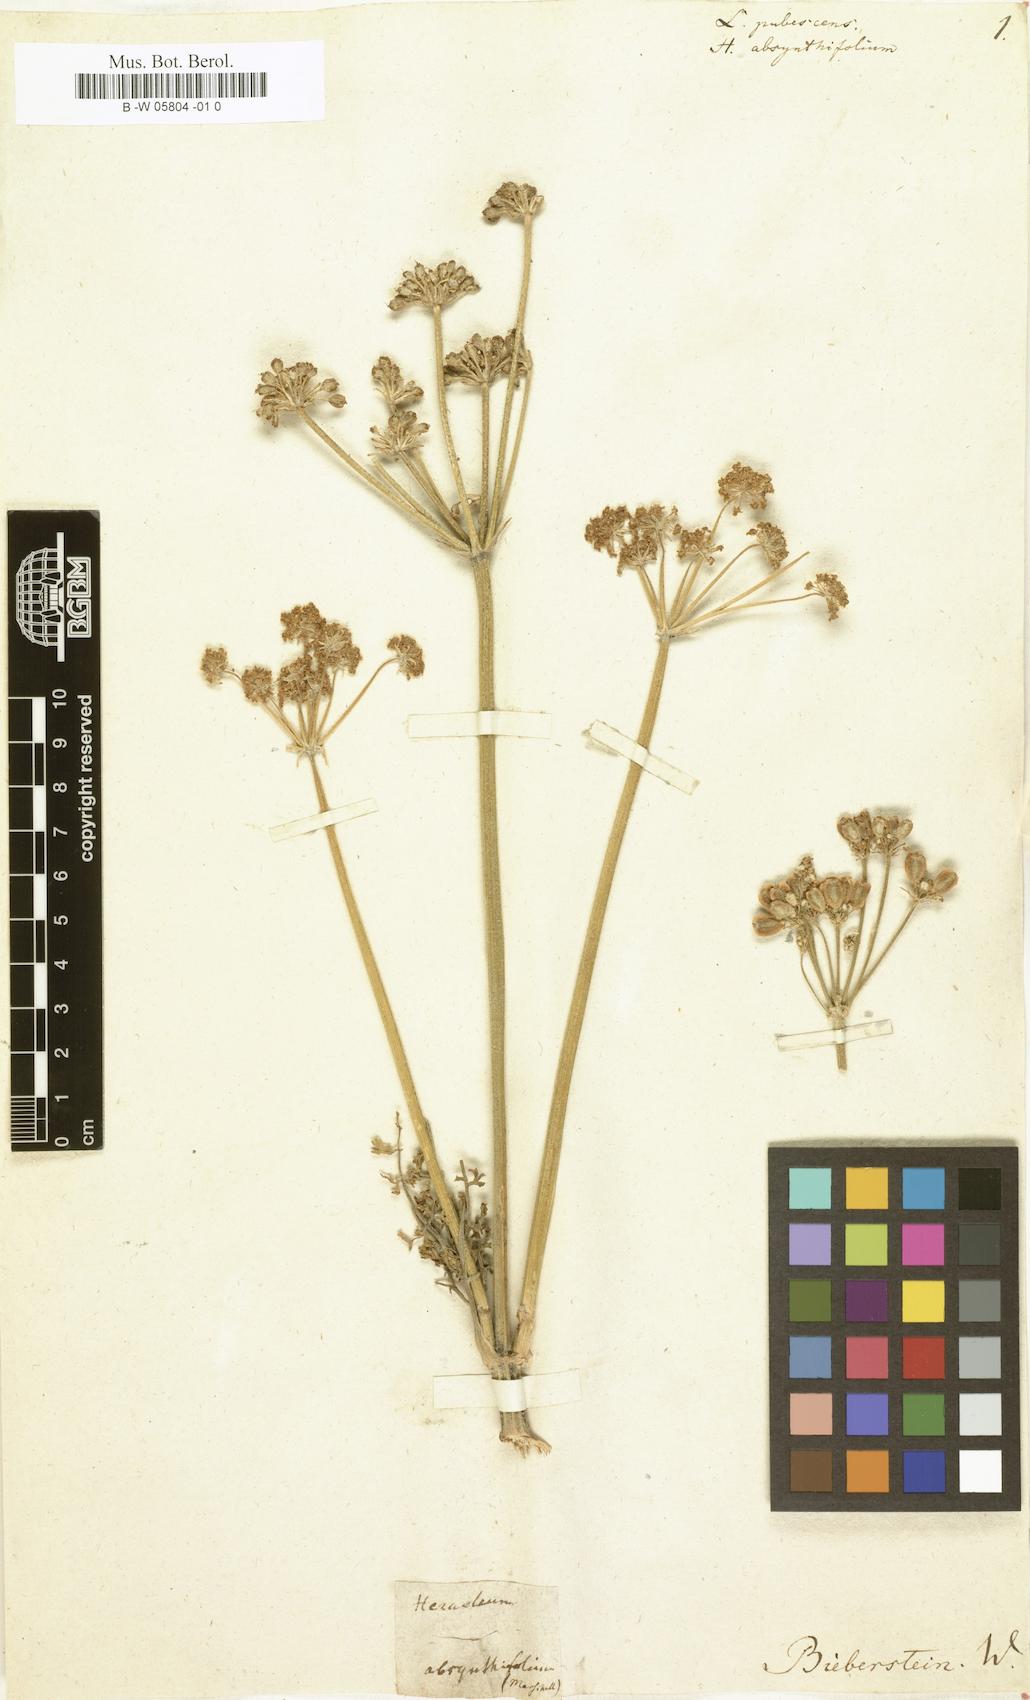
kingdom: Plantae
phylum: Tracheophyta
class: Magnoliopsida
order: Apiales
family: Apiaceae
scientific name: Apiaceae
